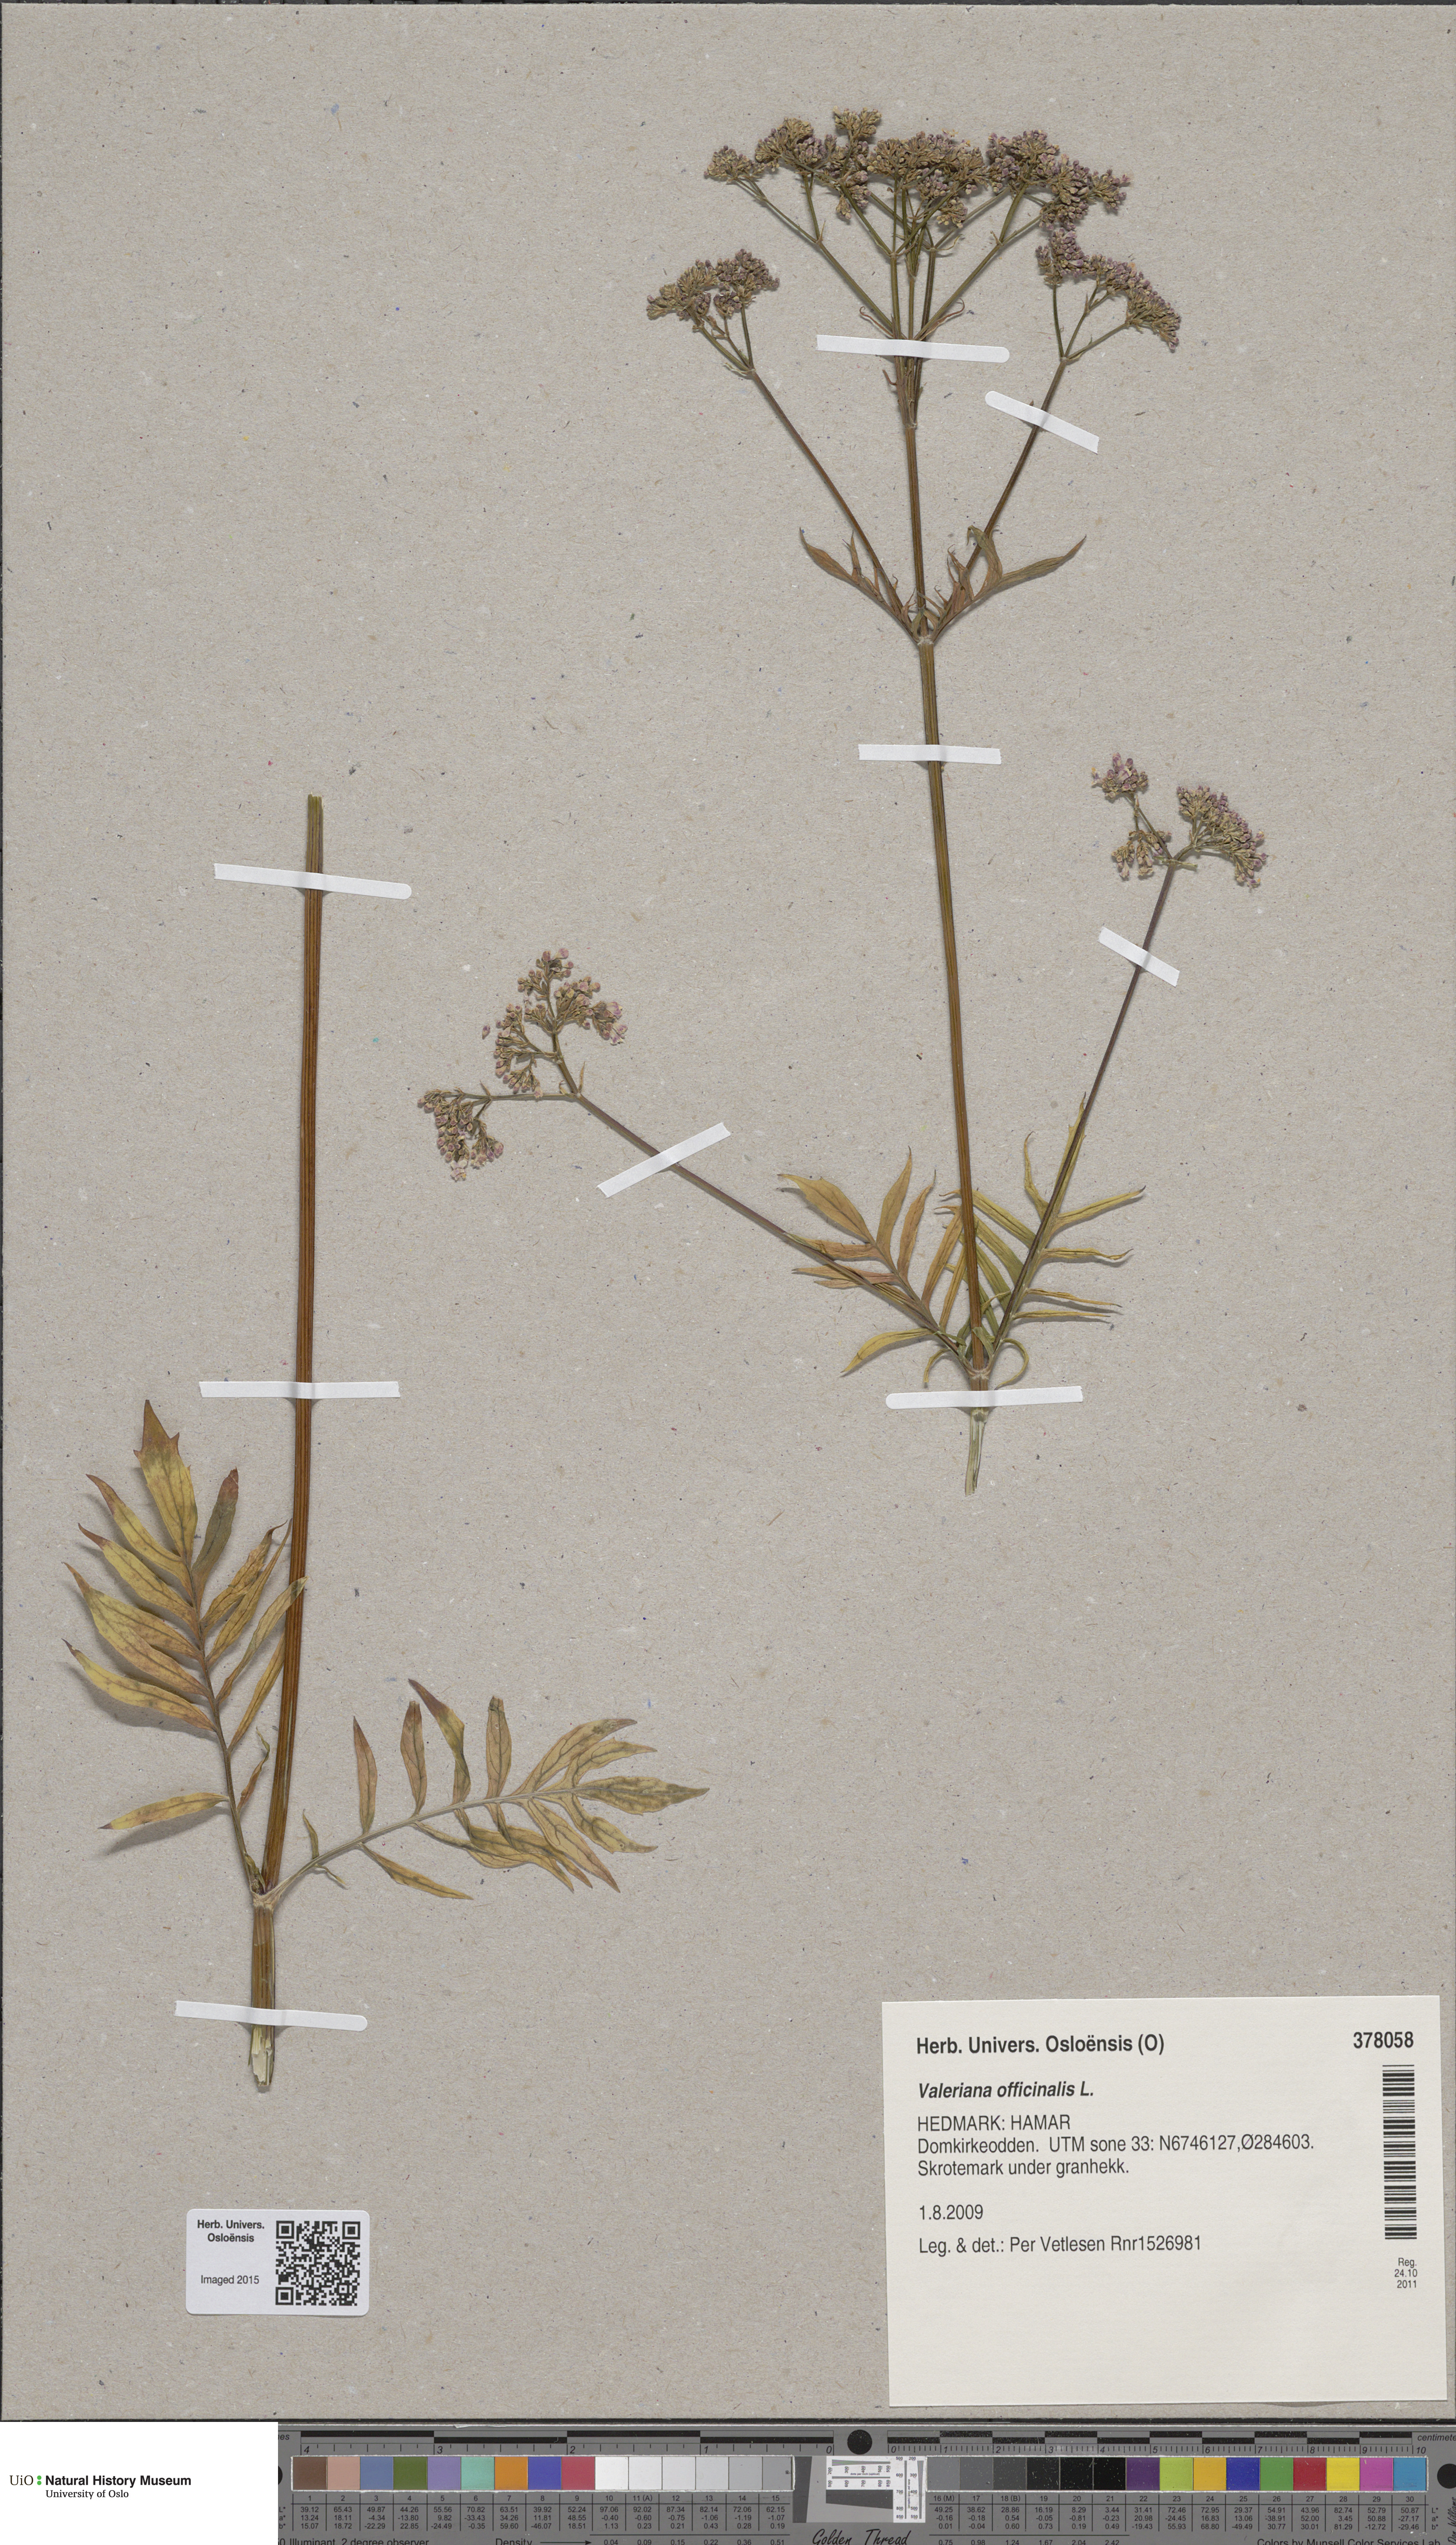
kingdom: Plantae
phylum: Tracheophyta
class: Magnoliopsida
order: Dipsacales
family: Caprifoliaceae
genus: Valeriana
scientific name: Valeriana officinalis
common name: Common valerian
